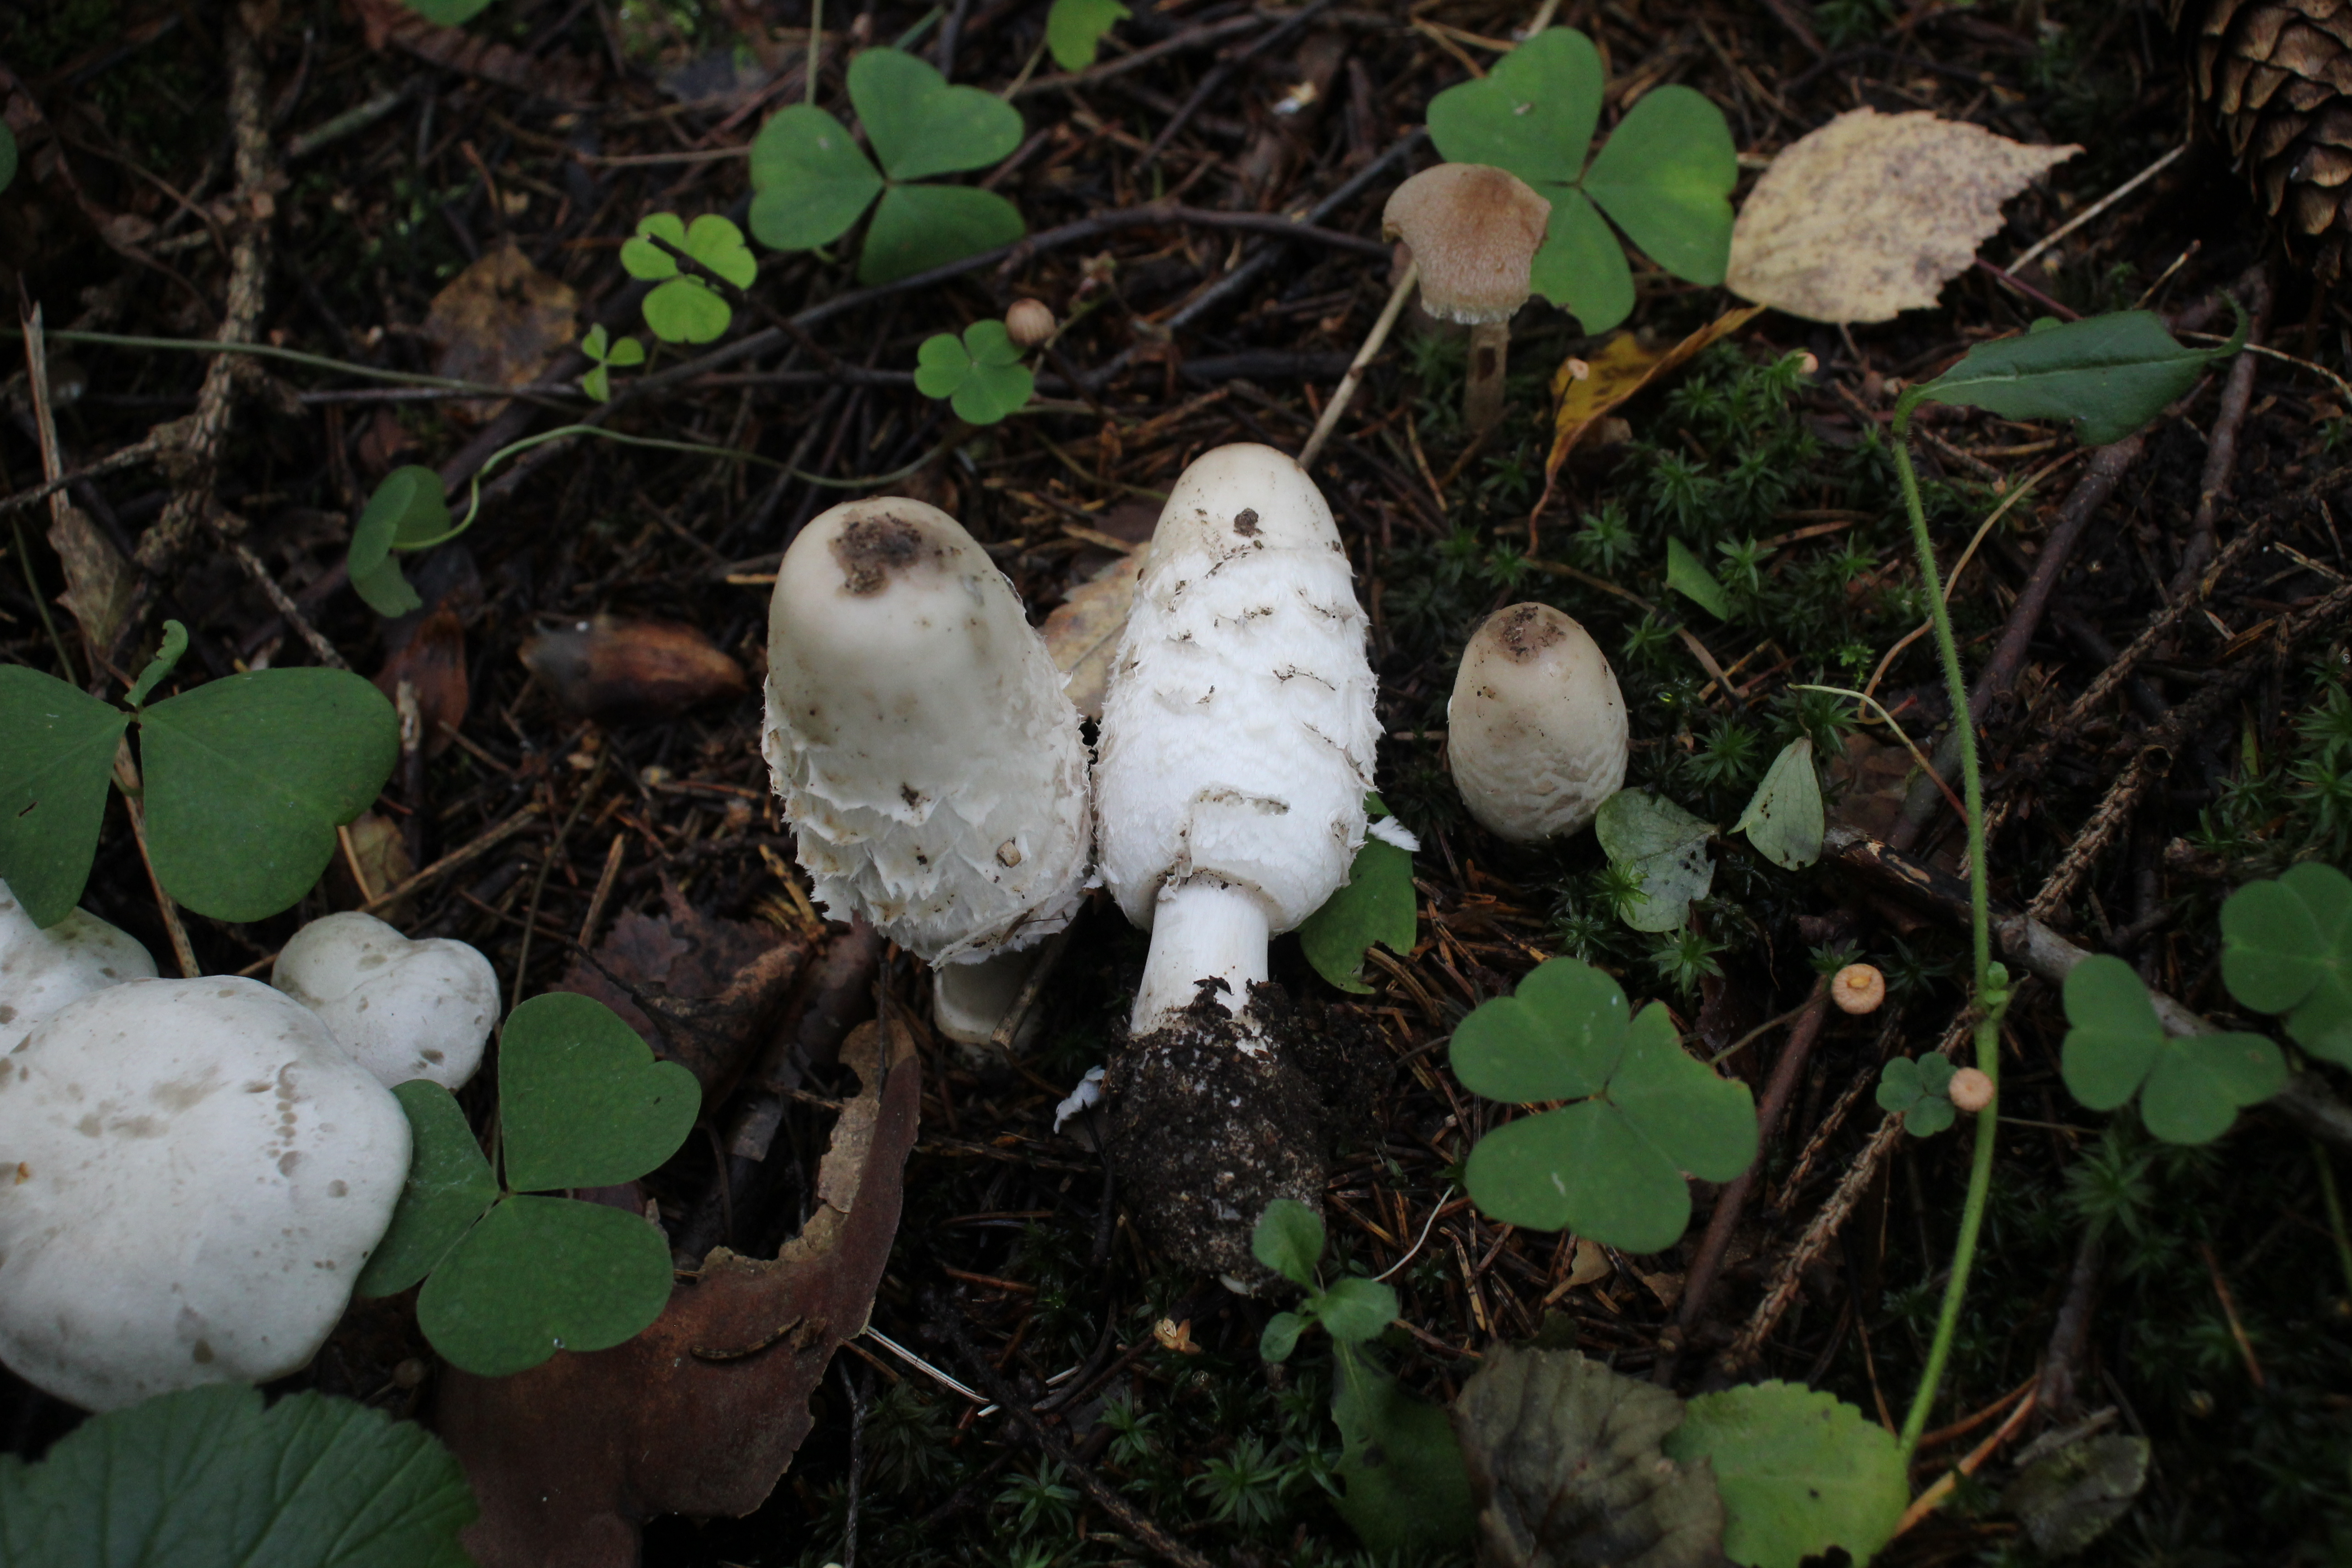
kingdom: Fungi
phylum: Basidiomycota
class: Agaricomycetes
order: Agaricales
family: Agaricaceae
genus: Coprinus
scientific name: Coprinus comatus
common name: Lawyer's wig
